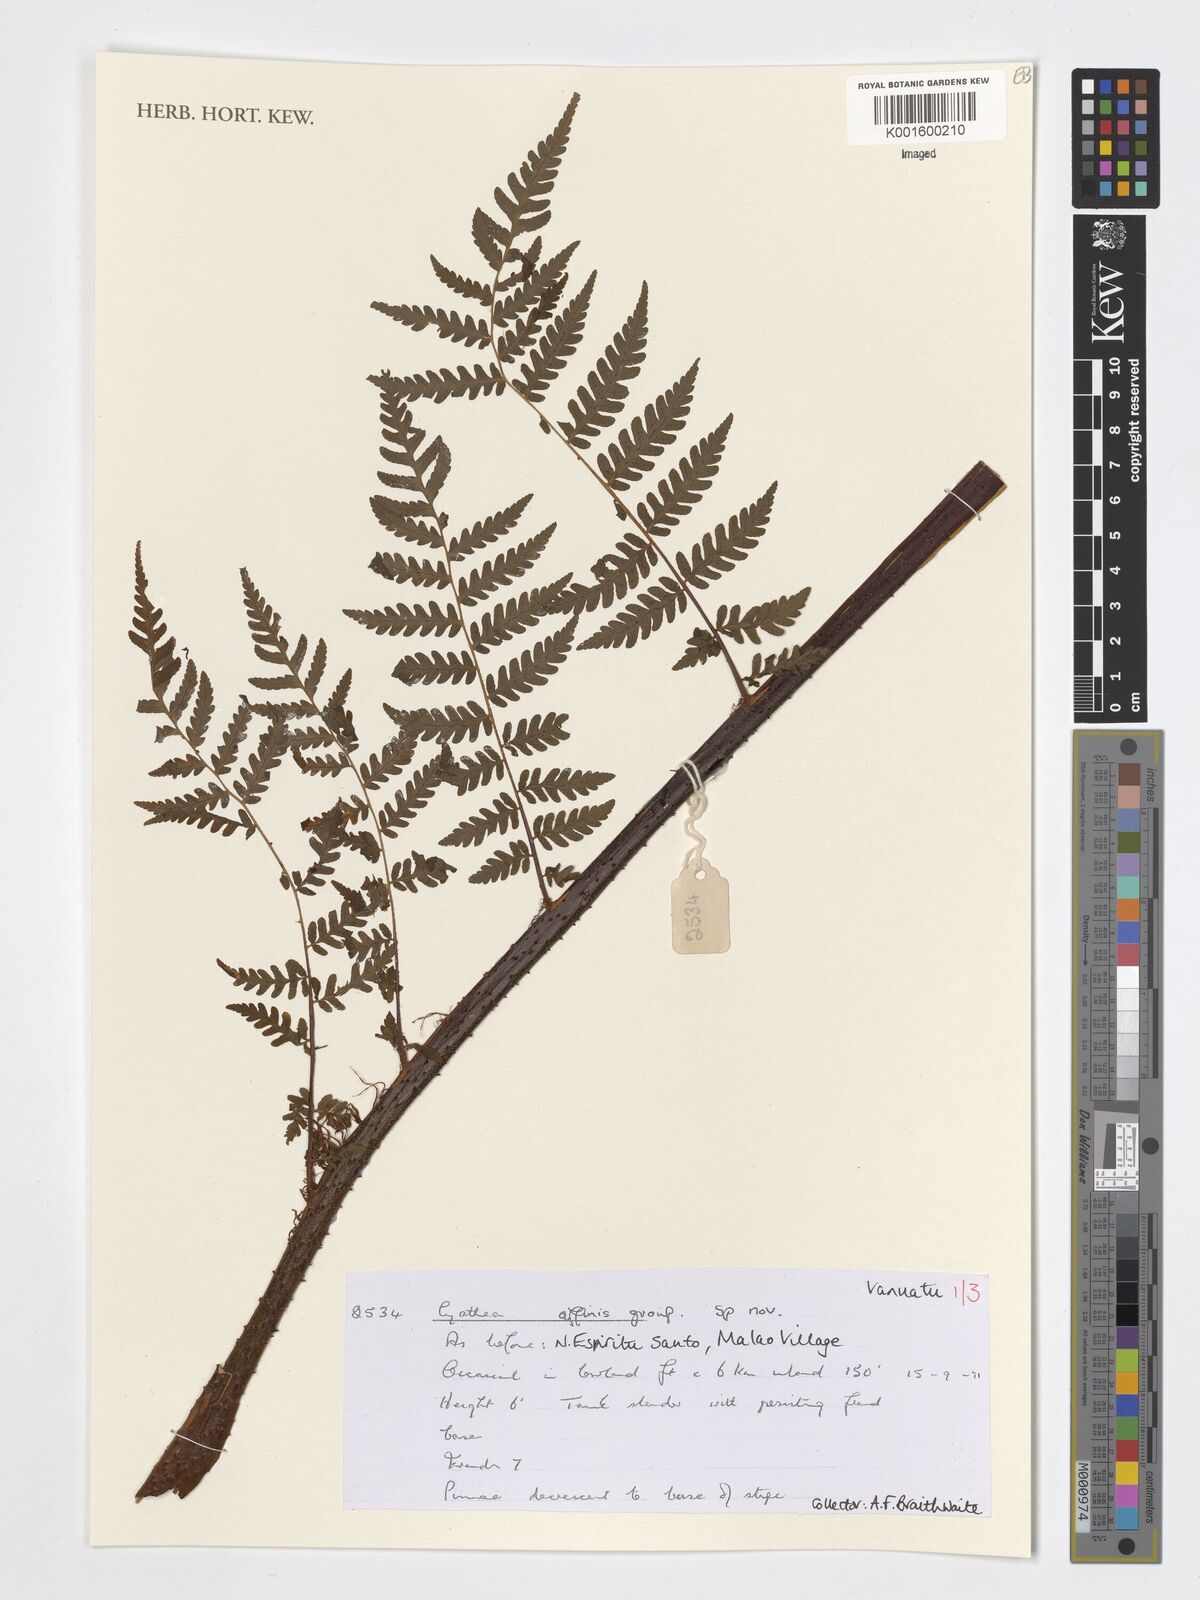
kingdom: Plantae
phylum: Tracheophyta
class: Polypodiopsida
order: Cyatheales
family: Cyatheaceae
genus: Cyathea
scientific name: Cyathea
